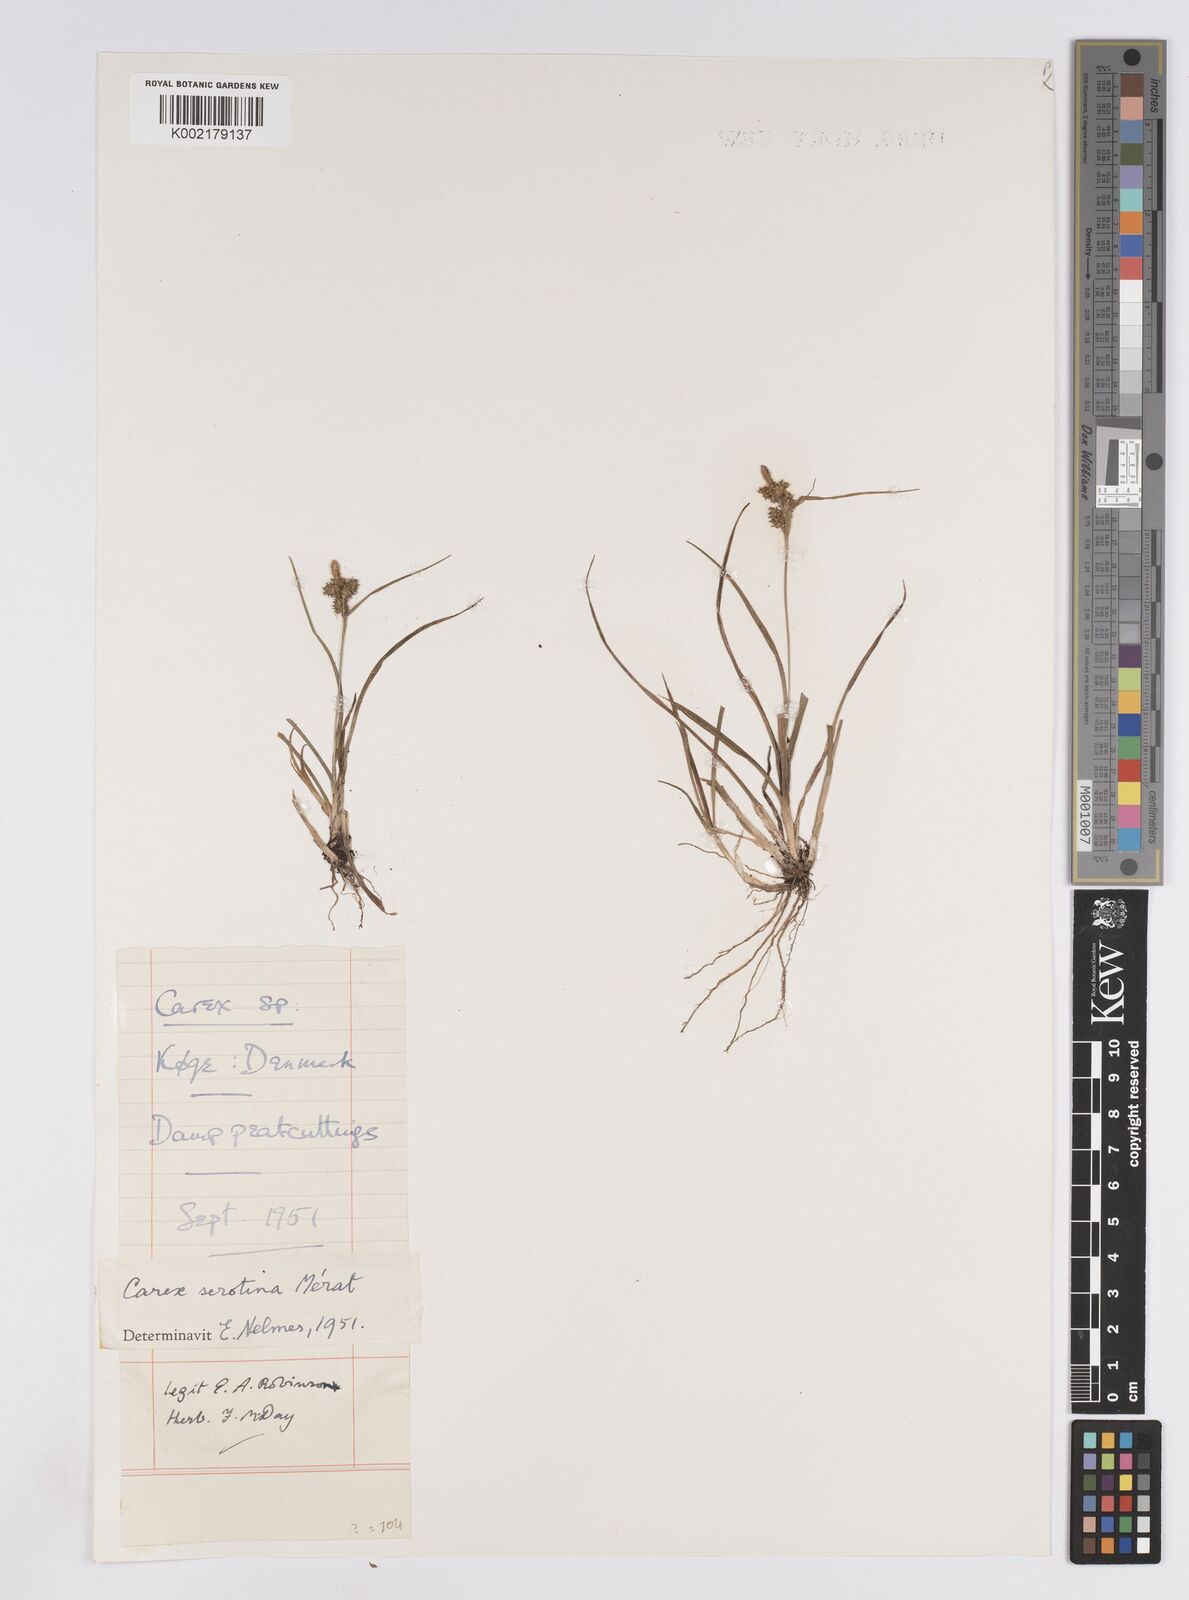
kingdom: Plantae
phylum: Tracheophyta
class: Liliopsida
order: Poales
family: Cyperaceae
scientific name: Cyperaceae
